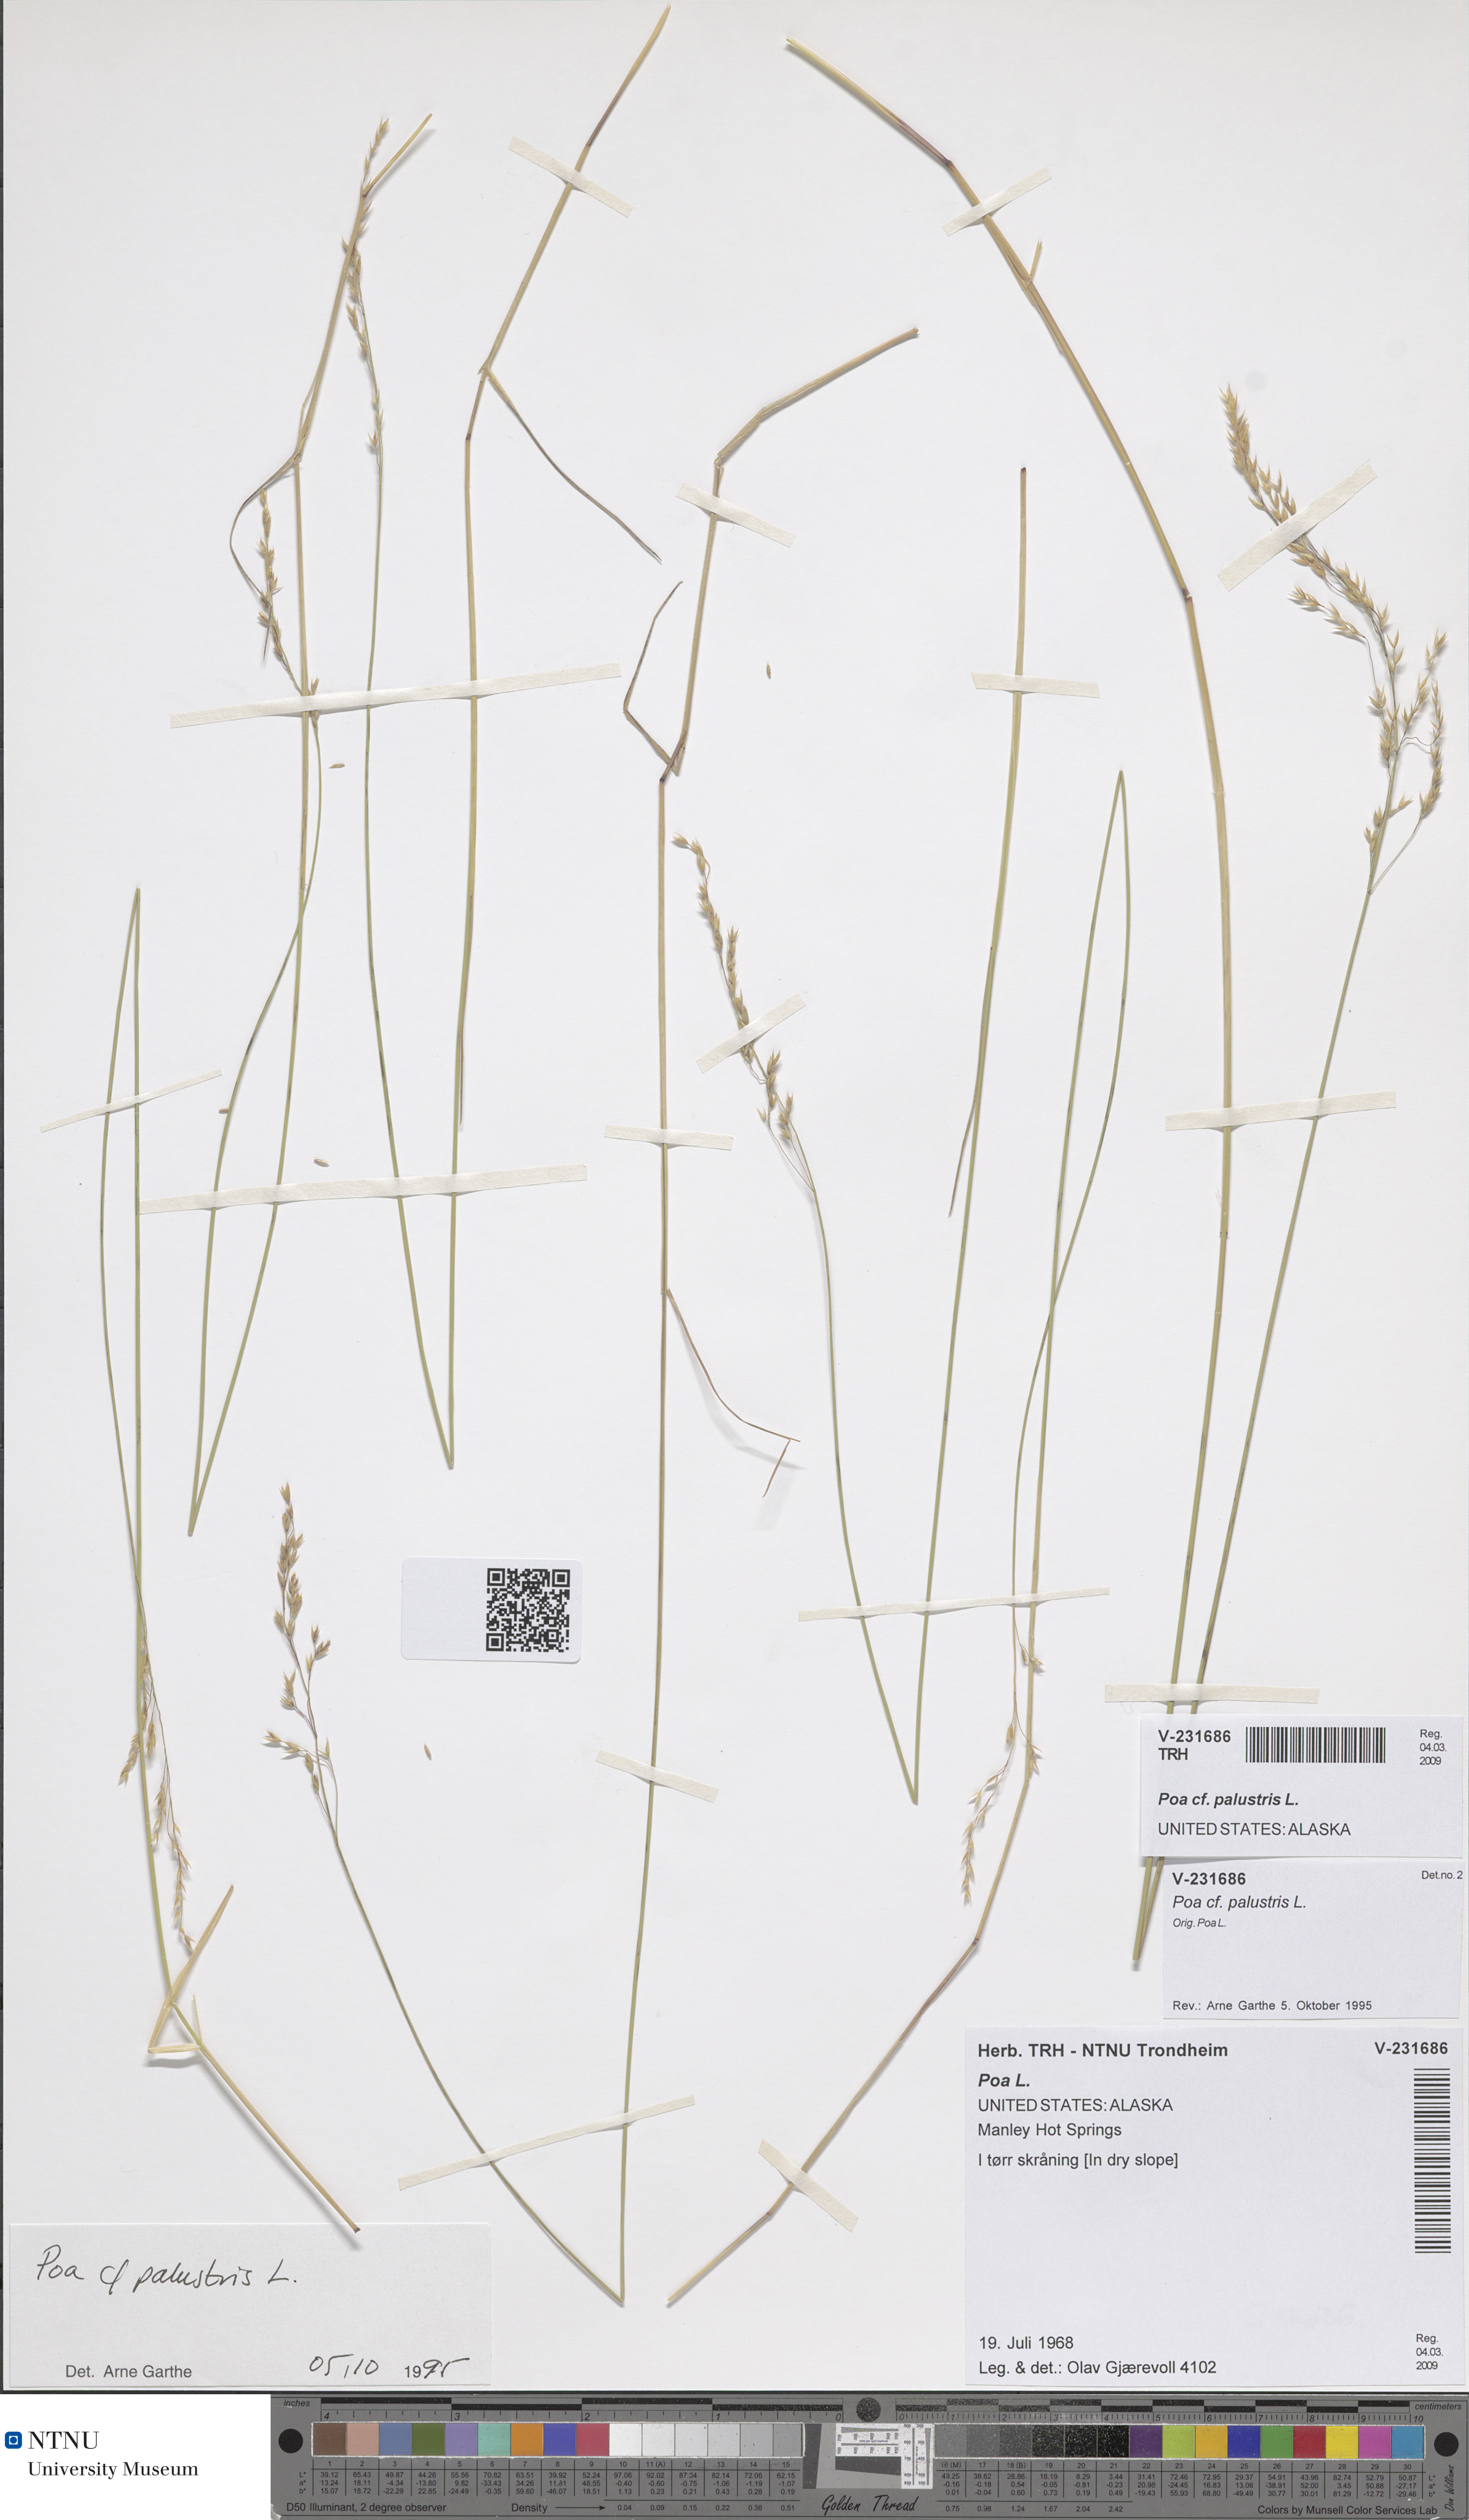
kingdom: Plantae
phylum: Tracheophyta
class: Liliopsida
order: Poales
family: Poaceae
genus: Poa
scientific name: Poa palustris
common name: Swamp meadow-grass
